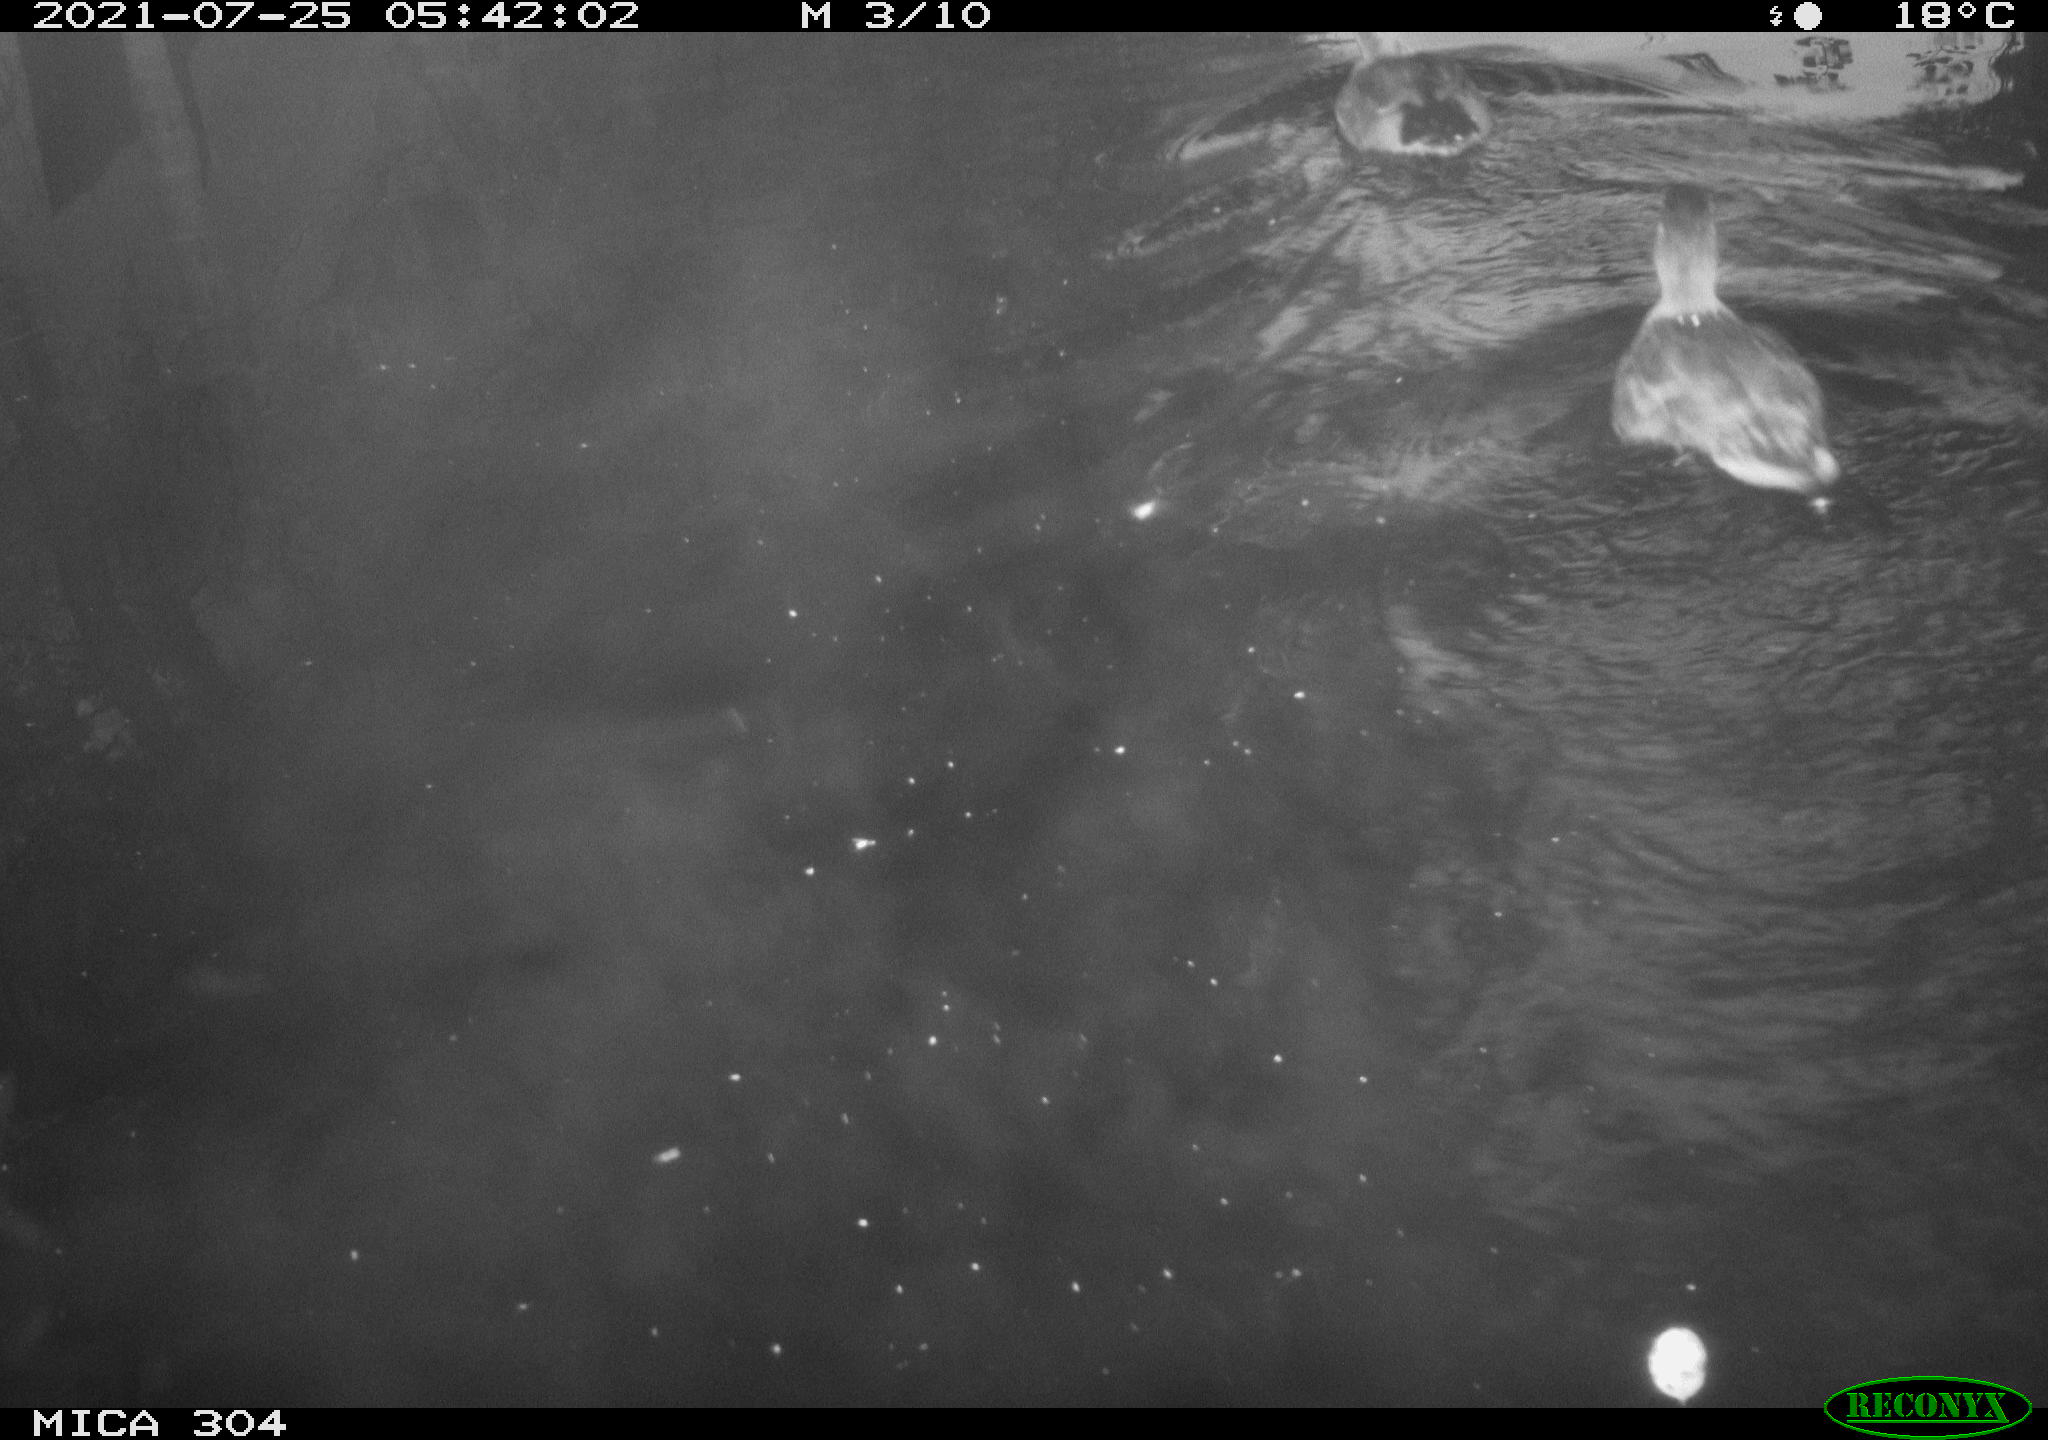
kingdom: Animalia
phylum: Chordata
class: Aves
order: Anseriformes
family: Anatidae
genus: Anas
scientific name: Anas platyrhynchos
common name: Mallard
